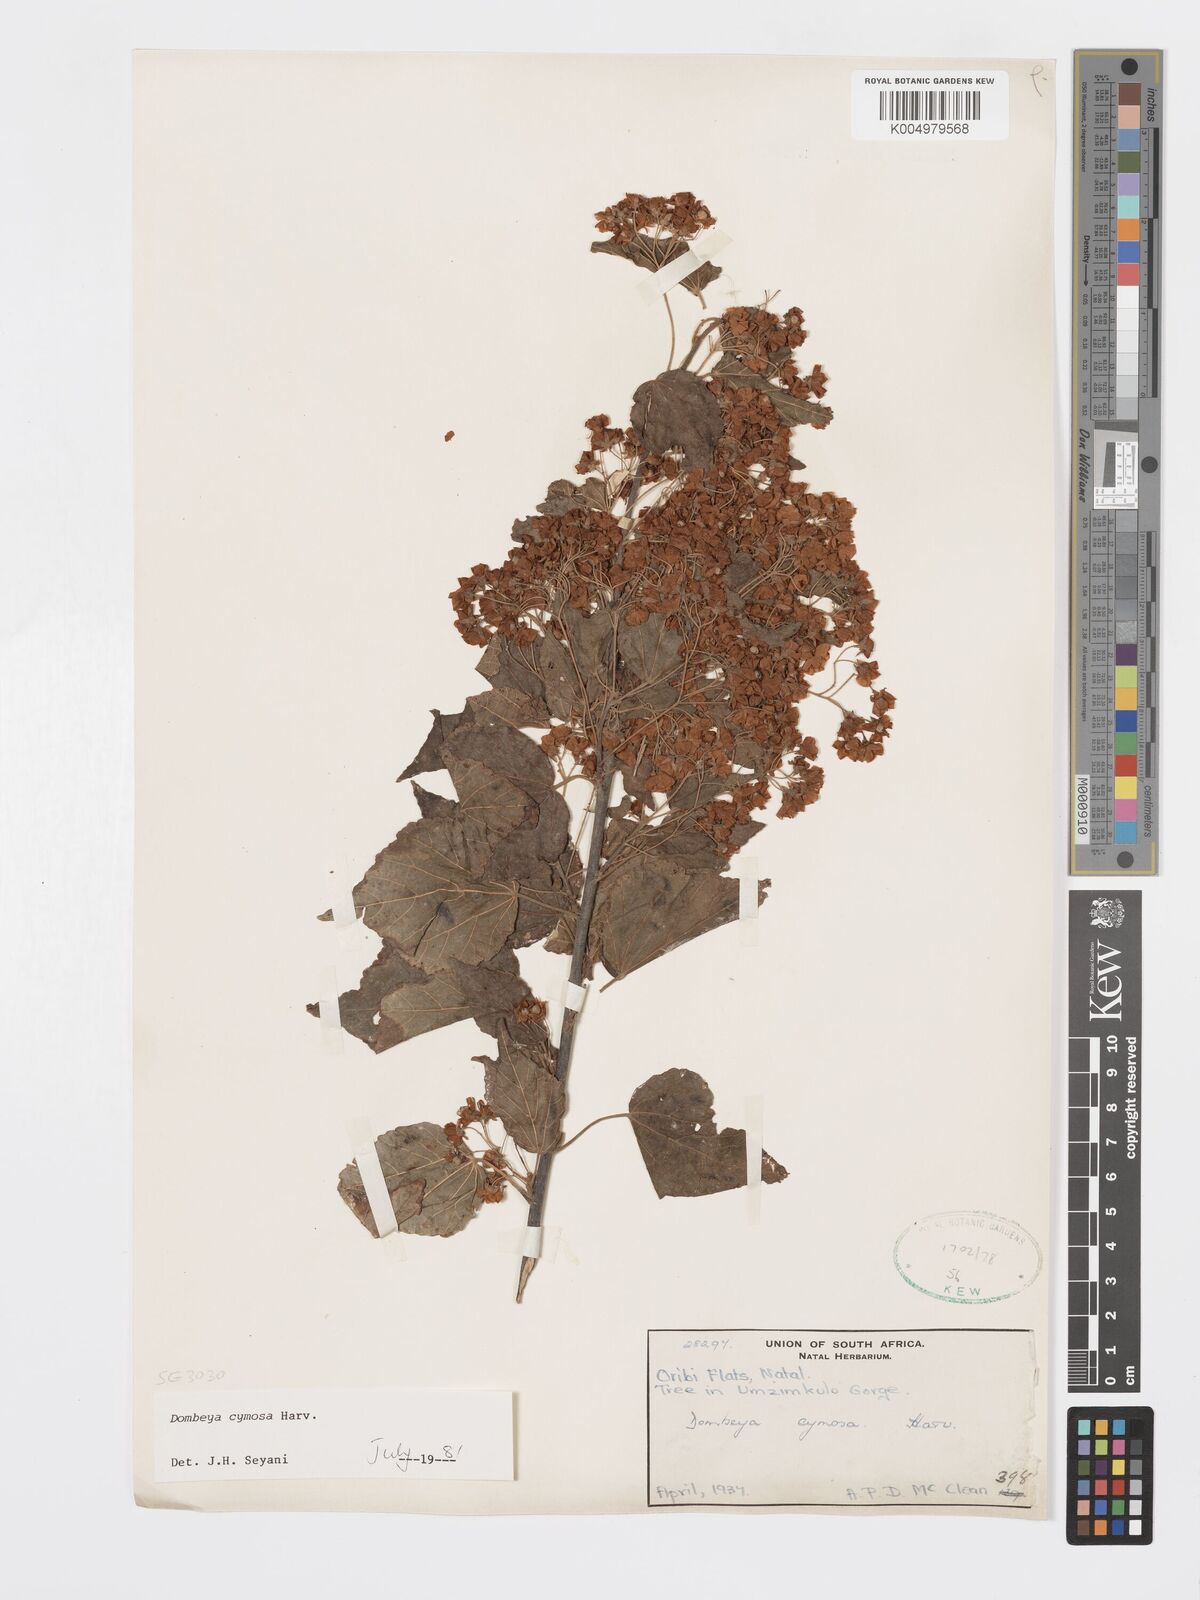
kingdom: Plantae
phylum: Tracheophyta
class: Magnoliopsida
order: Malvales
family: Malvaceae
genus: Dombeya
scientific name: Dombeya cymosa
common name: Hairless dombeya
